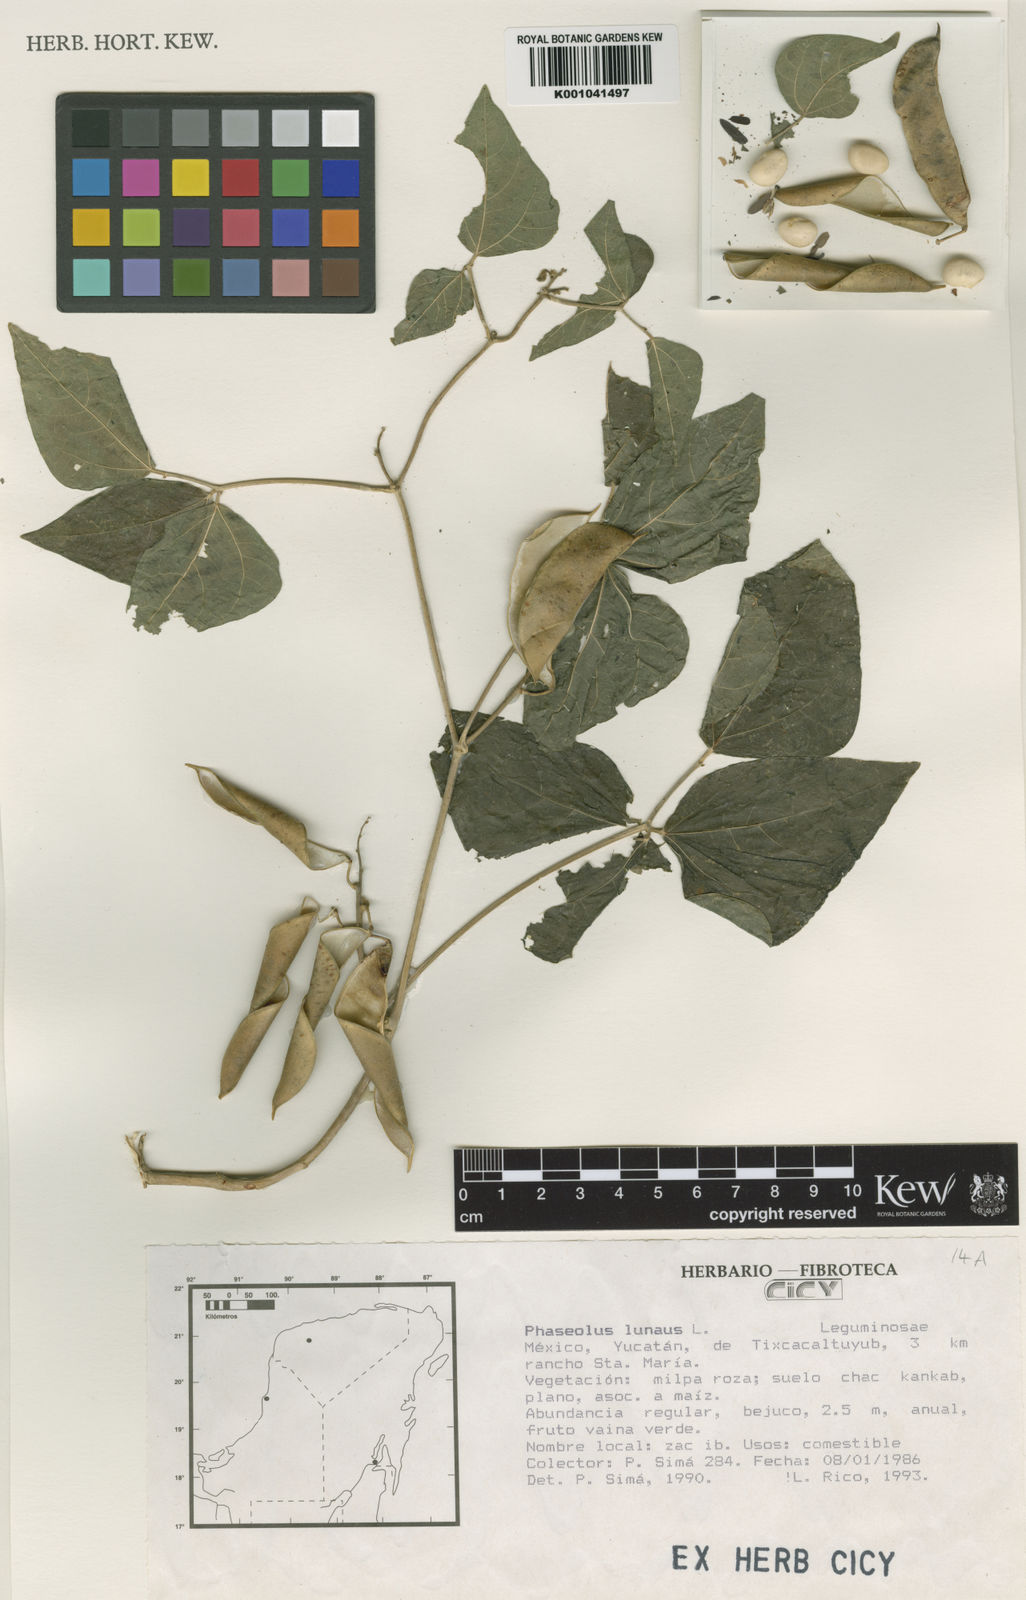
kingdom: Plantae
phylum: Tracheophyta
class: Magnoliopsida
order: Fabales
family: Fabaceae
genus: Phaseolus
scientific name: Phaseolus lunatus
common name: Sieva bean
